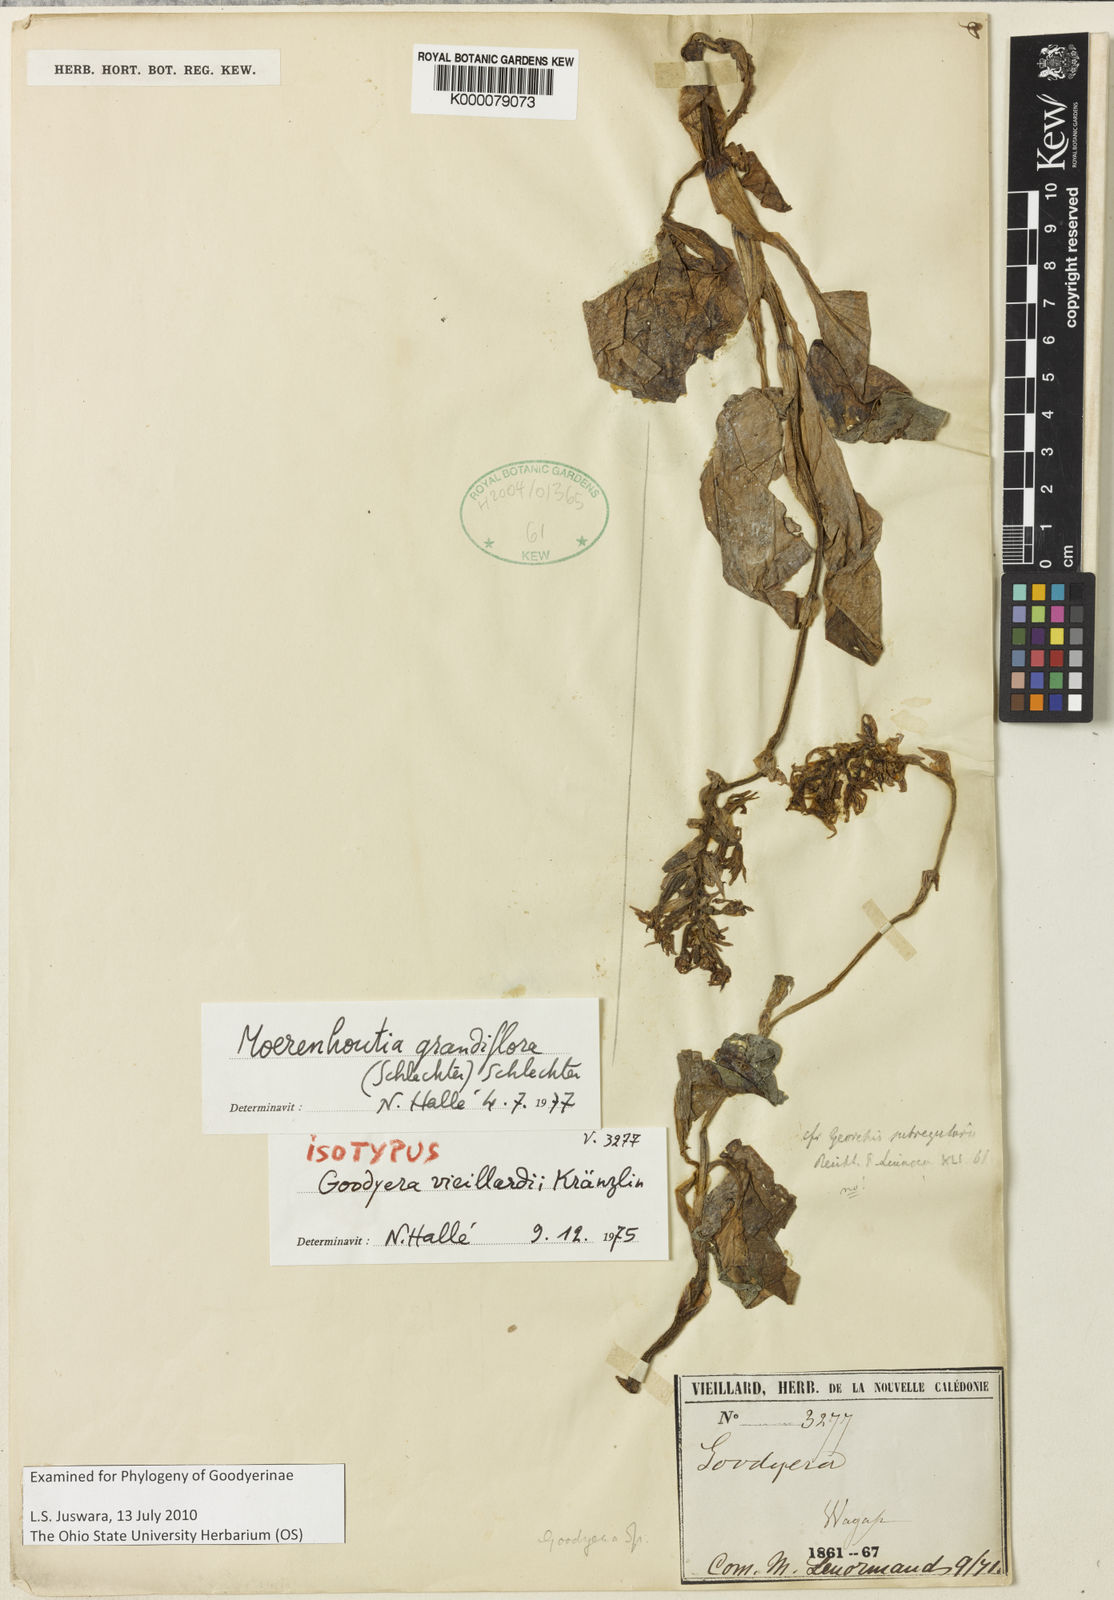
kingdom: Plantae
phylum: Tracheophyta
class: Liliopsida
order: Asparagales
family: Orchidaceae
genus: Platylepis
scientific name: Platylepis grandiflora
